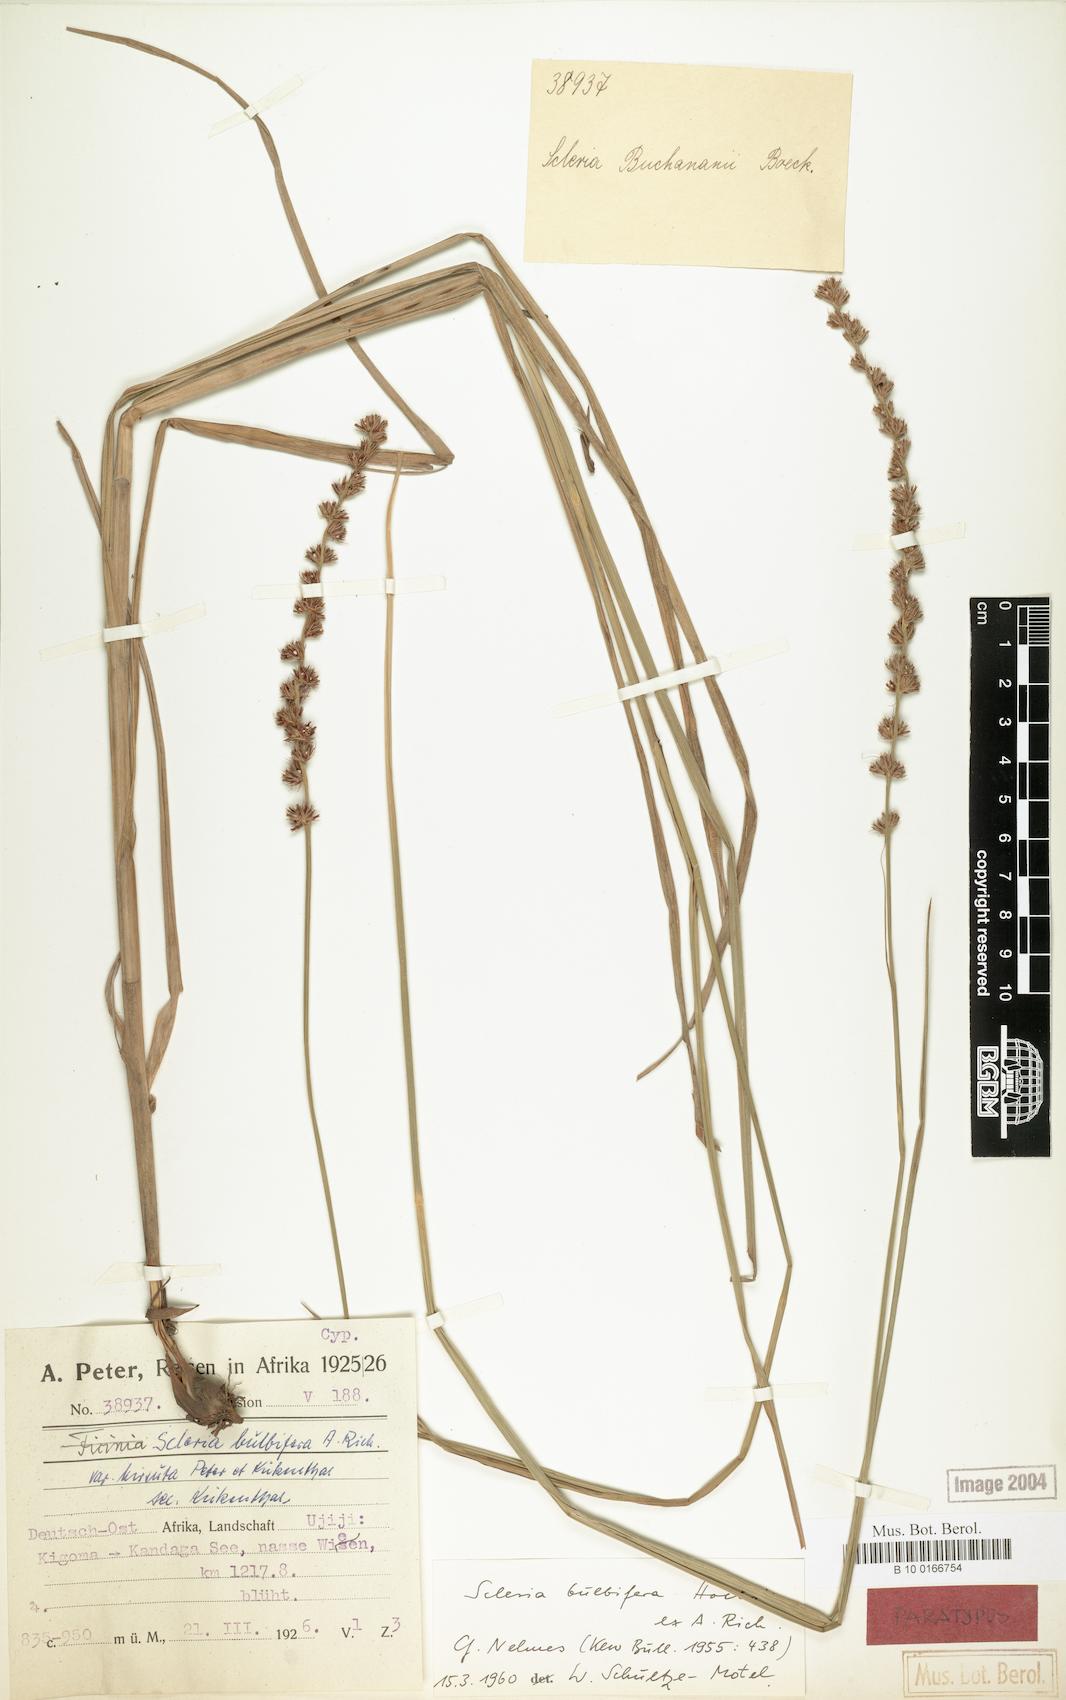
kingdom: Plantae
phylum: Tracheophyta
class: Liliopsida
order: Poales
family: Cyperaceae
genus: Scleria
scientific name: Scleria bulbifera
